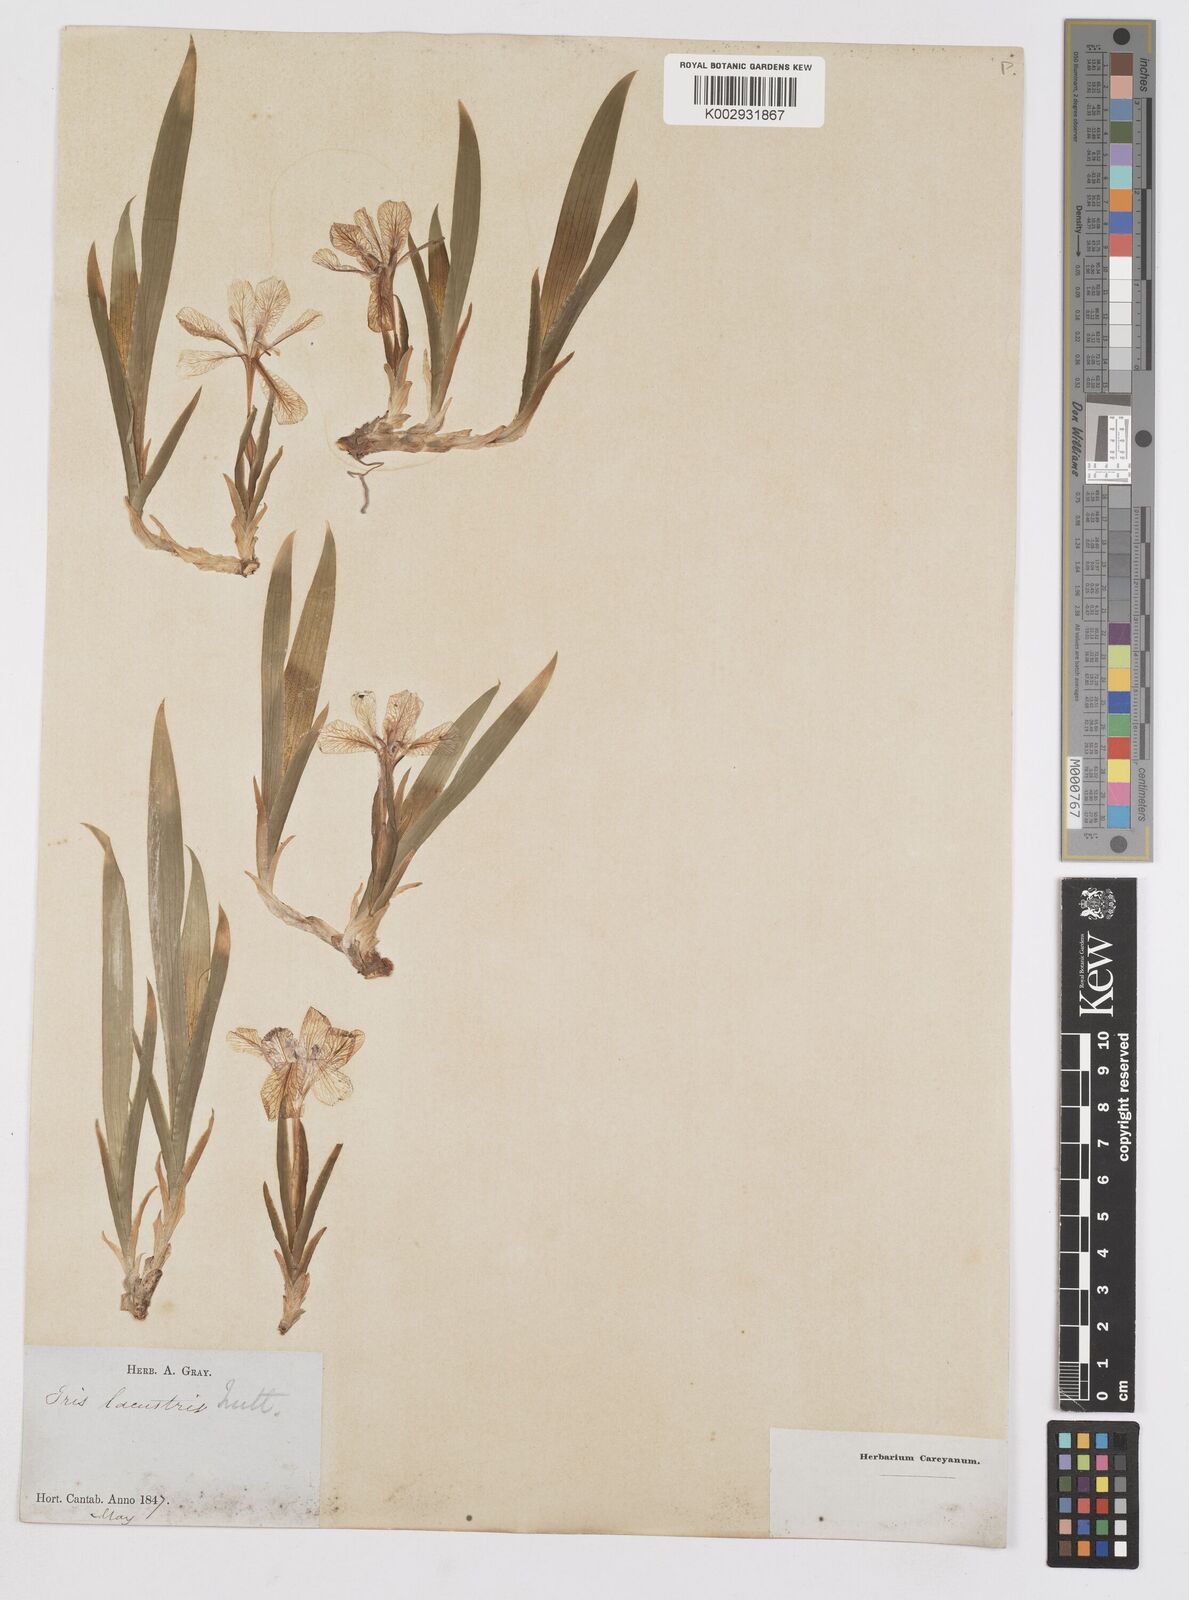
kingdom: Plantae
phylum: Tracheophyta
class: Liliopsida
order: Asparagales
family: Iridaceae
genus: Iris
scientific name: Iris lacustris
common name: Dwarf lake iris
